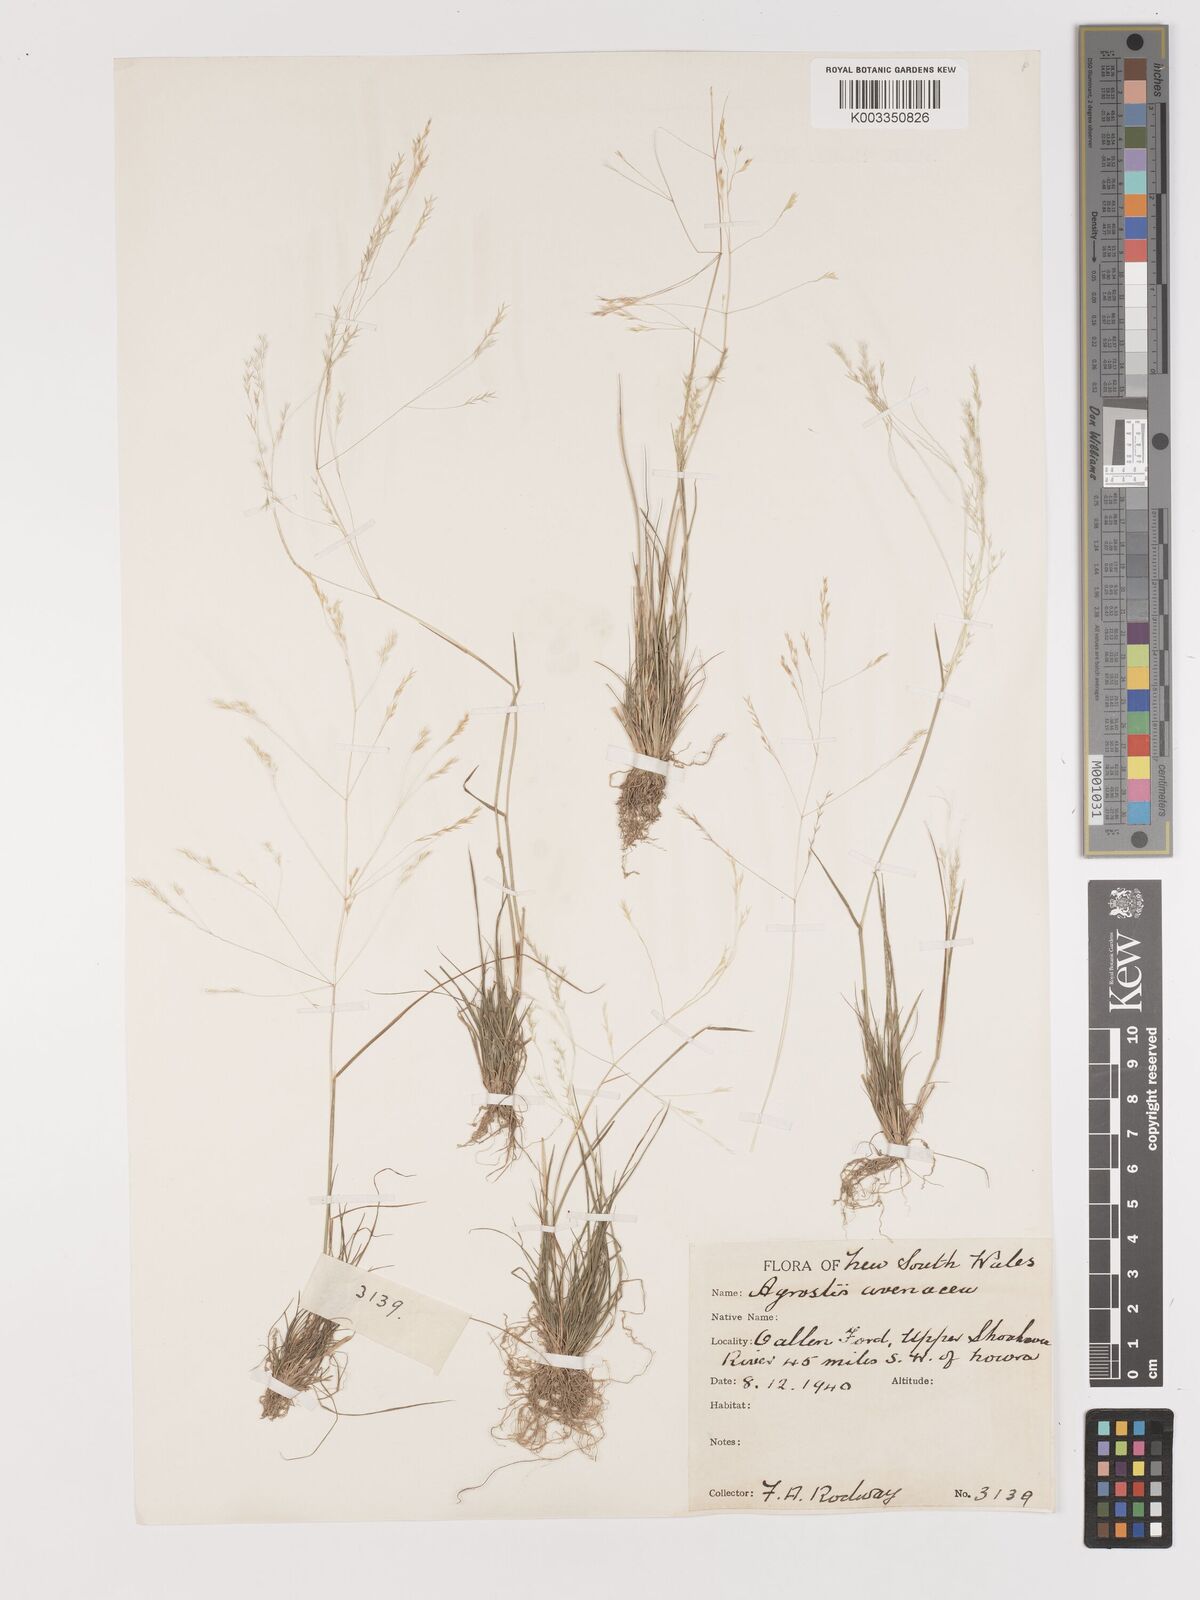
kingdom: Plantae
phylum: Tracheophyta
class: Liliopsida
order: Poales
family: Poaceae
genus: Lachnagrostis
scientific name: Lachnagrostis filiformis
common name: Bentgrass
